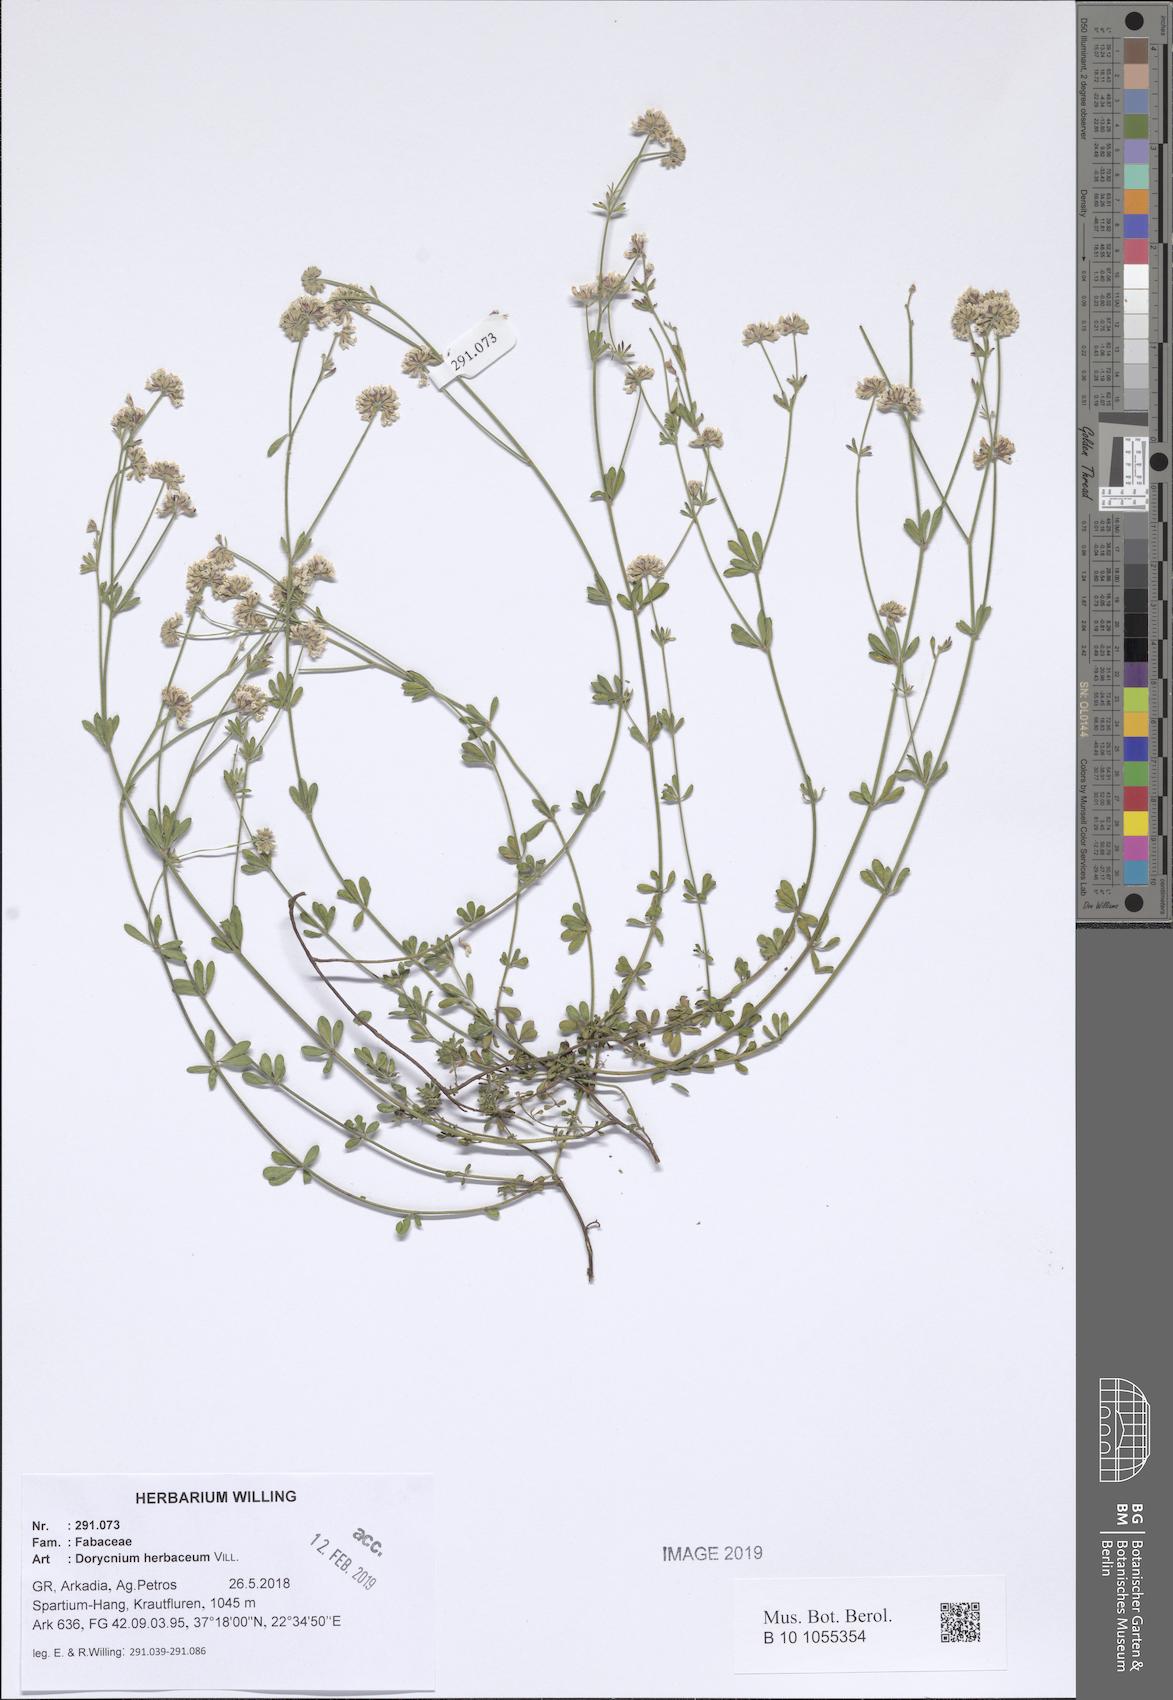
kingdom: Plantae
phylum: Tracheophyta
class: Magnoliopsida
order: Fabales
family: Fabaceae
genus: Lotus
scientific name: Lotus herbaceus
